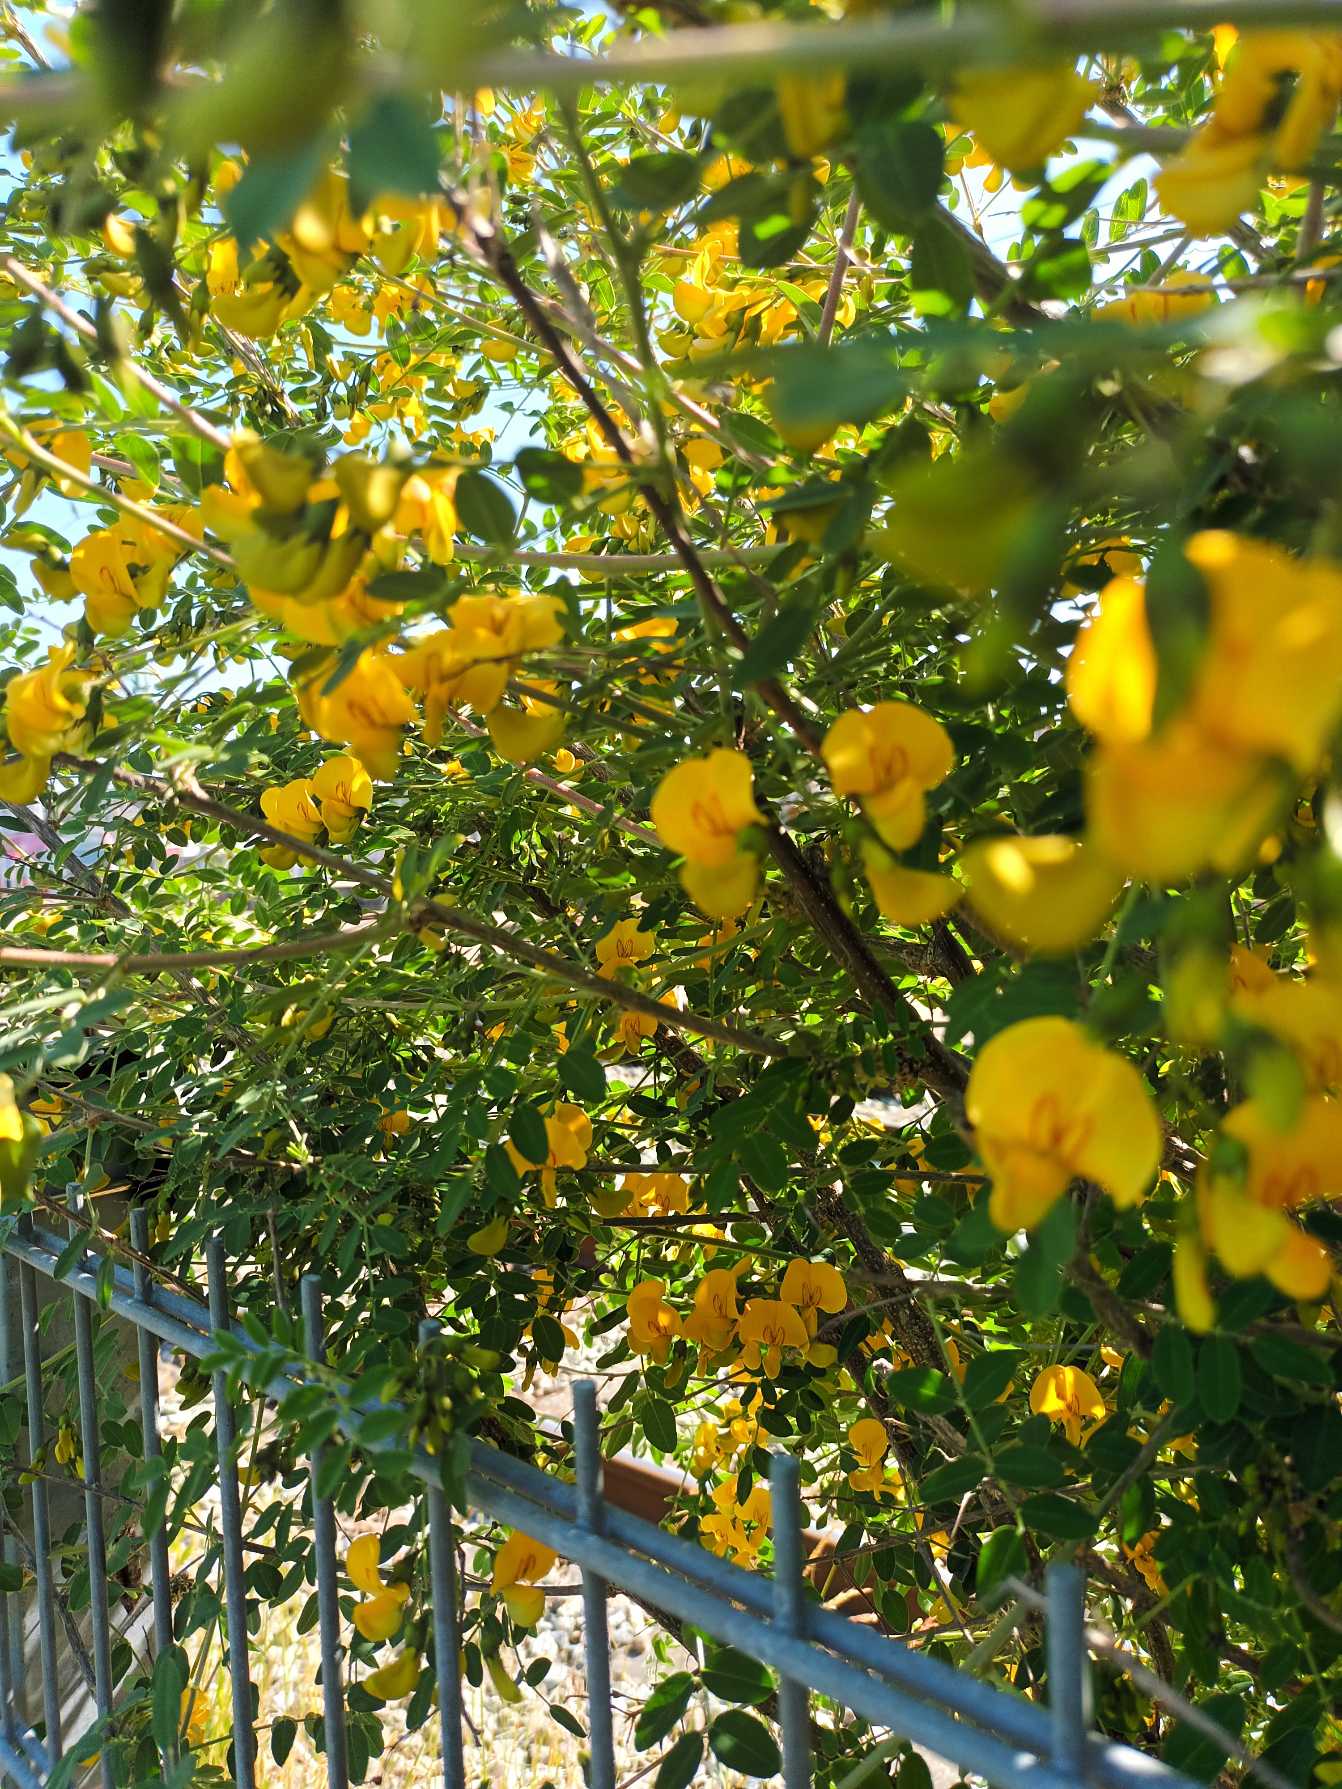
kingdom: Plantae
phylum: Tracheophyta
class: Magnoliopsida
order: Fabales
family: Fabaceae
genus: Colutea
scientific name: Colutea arborescens
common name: Almindelig blærebælg
